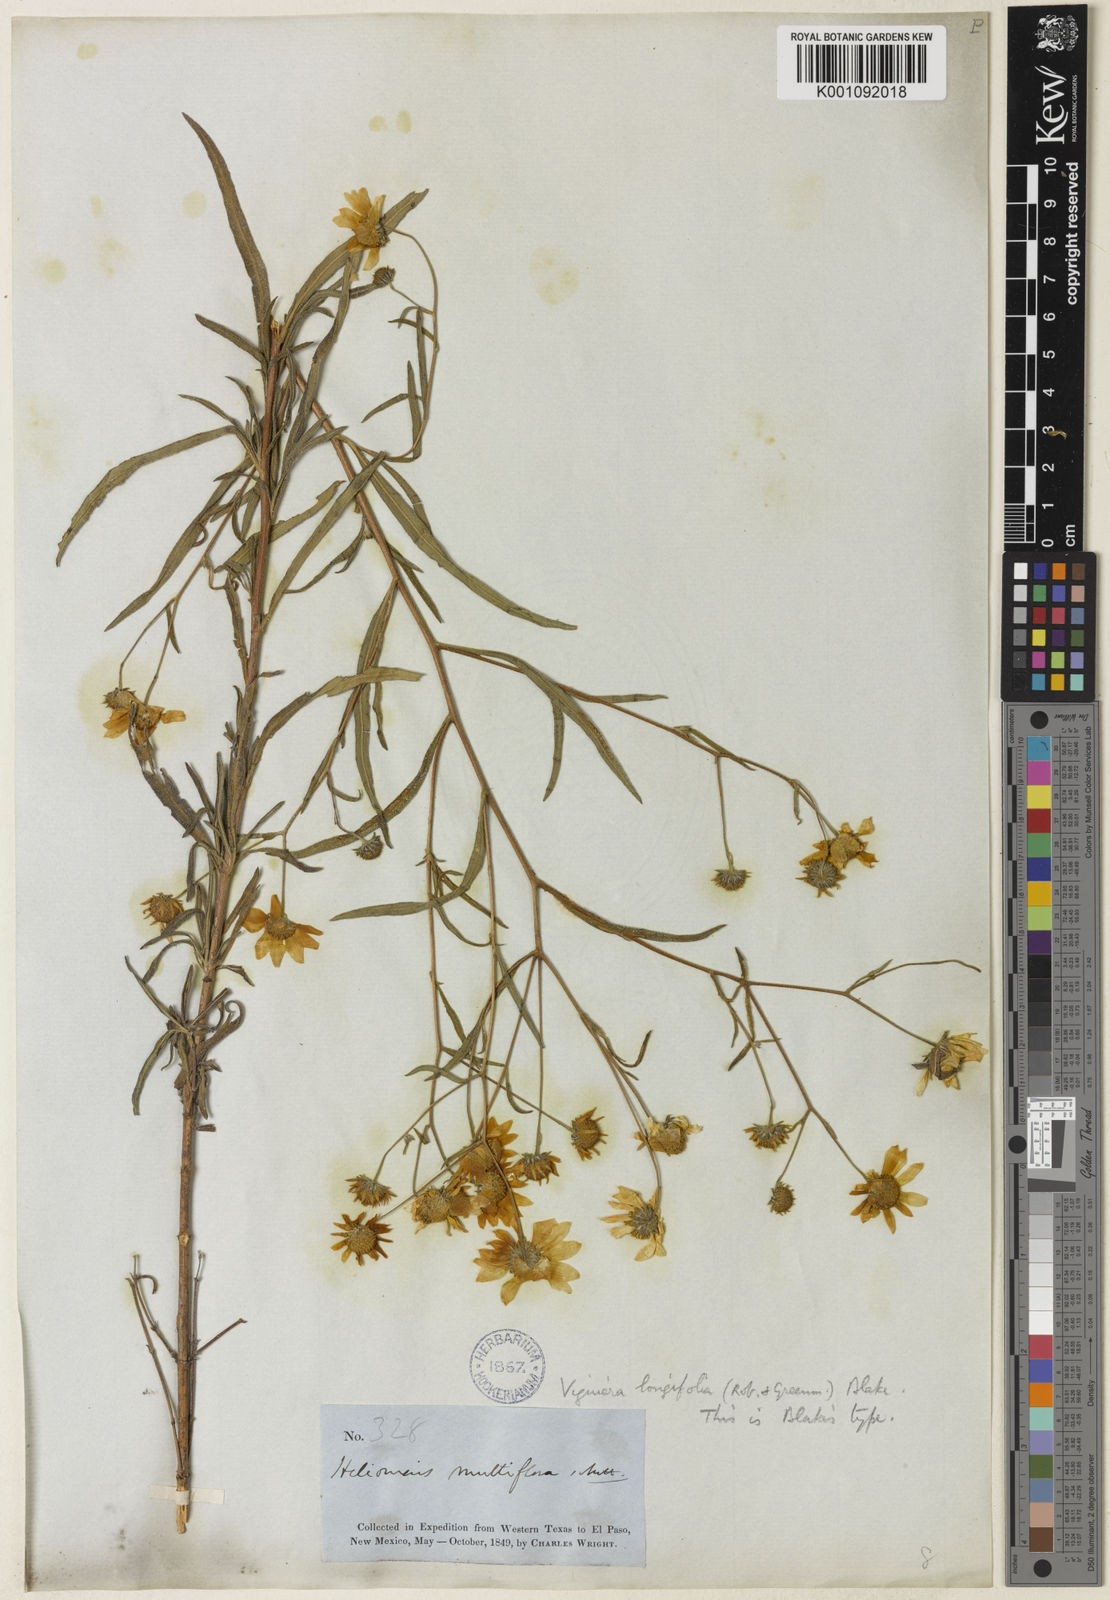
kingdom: Plantae
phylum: Tracheophyta
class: Magnoliopsida
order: Asterales
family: Asteraceae
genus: Heliomeris
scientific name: Heliomeris longifolia
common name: Longleaf false goldeneye
